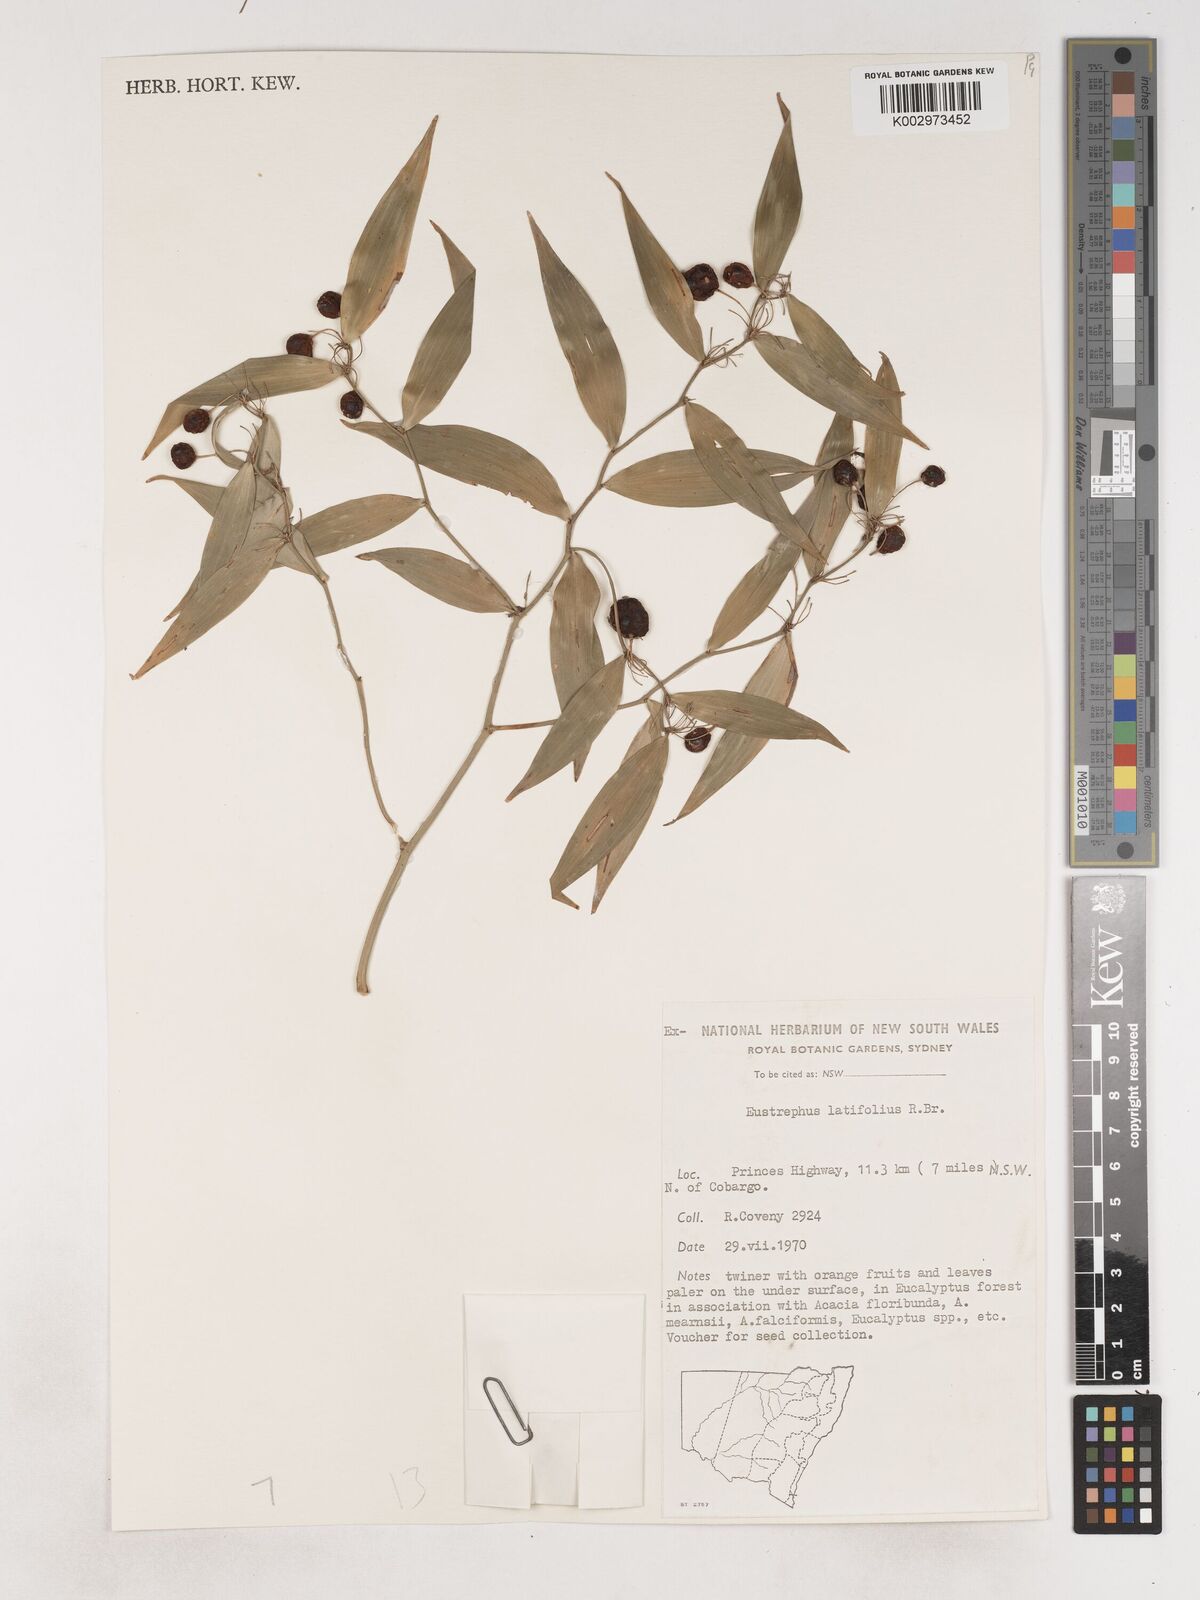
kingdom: Plantae
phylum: Tracheophyta
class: Liliopsida
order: Asparagales
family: Asparagaceae
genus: Eustrephus
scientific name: Eustrephus latifolius
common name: Orangevine
